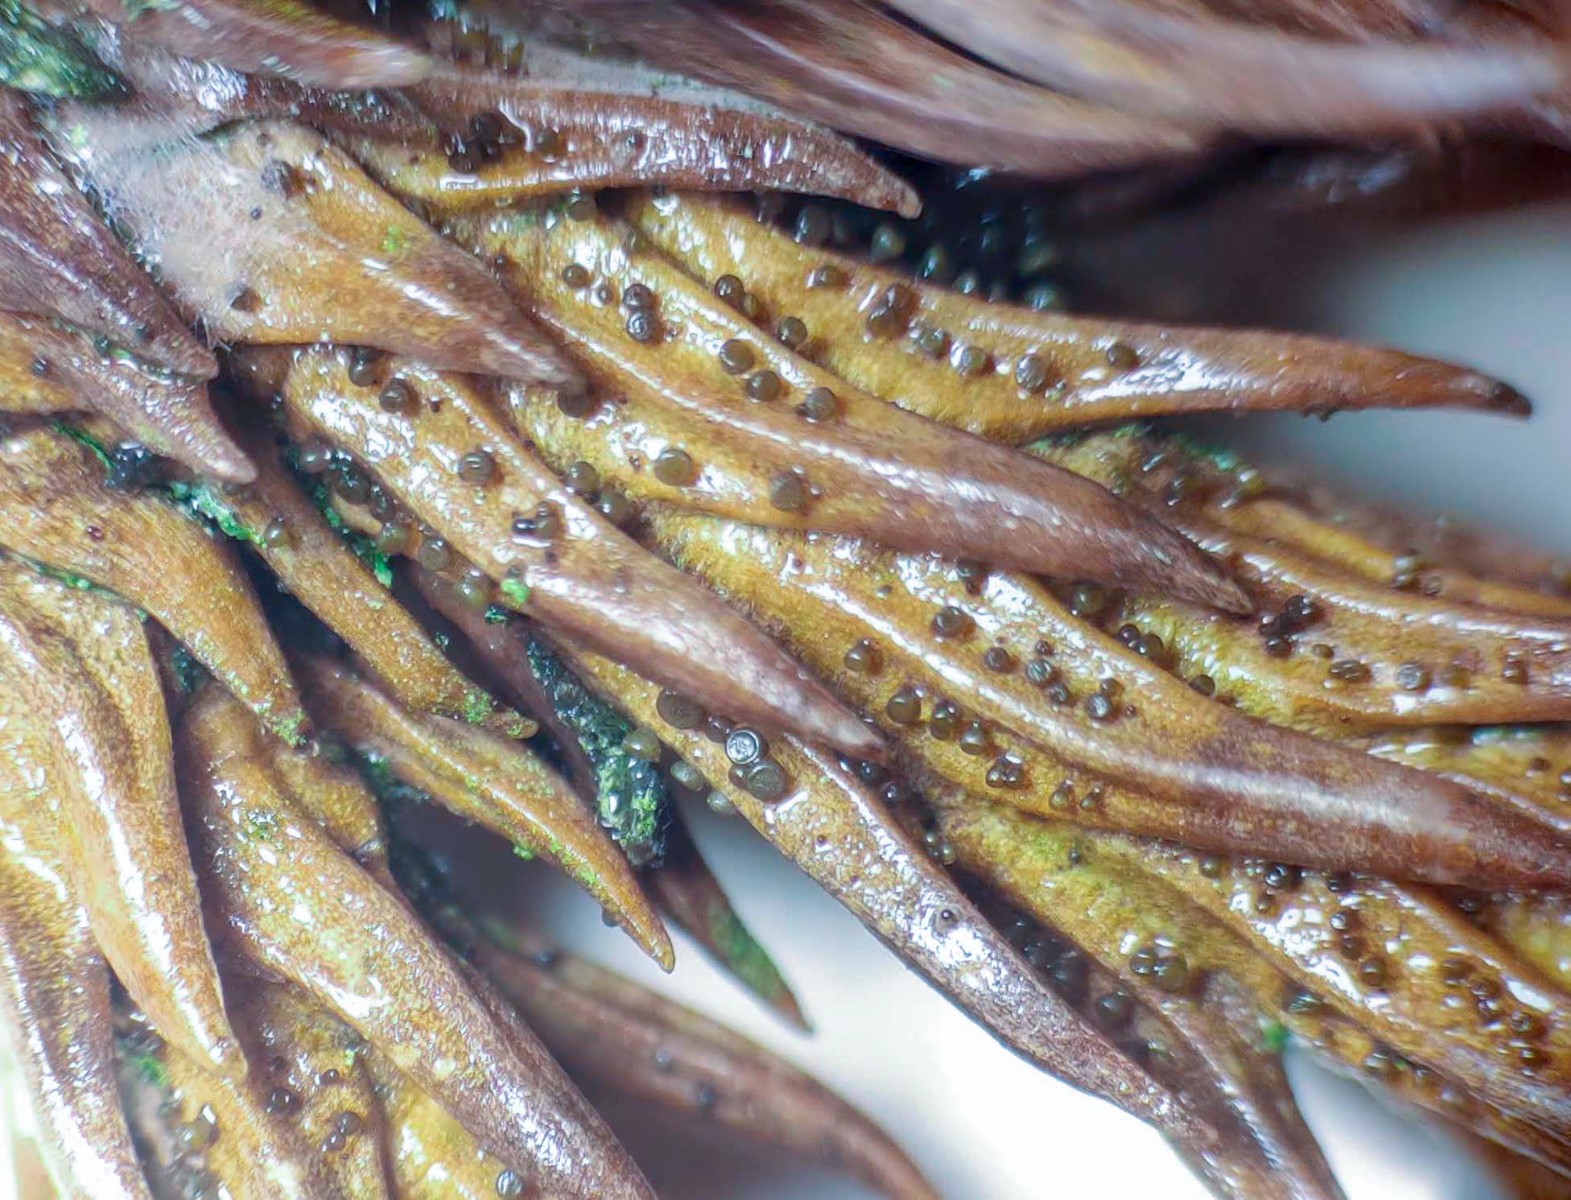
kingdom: Fungi
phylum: Ascomycota
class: Leotiomycetes
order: Helotiales
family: Gelatinodiscaceae
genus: Chloroscypha
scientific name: Chloroscypha seaveri
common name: kortstilket cypresskive
